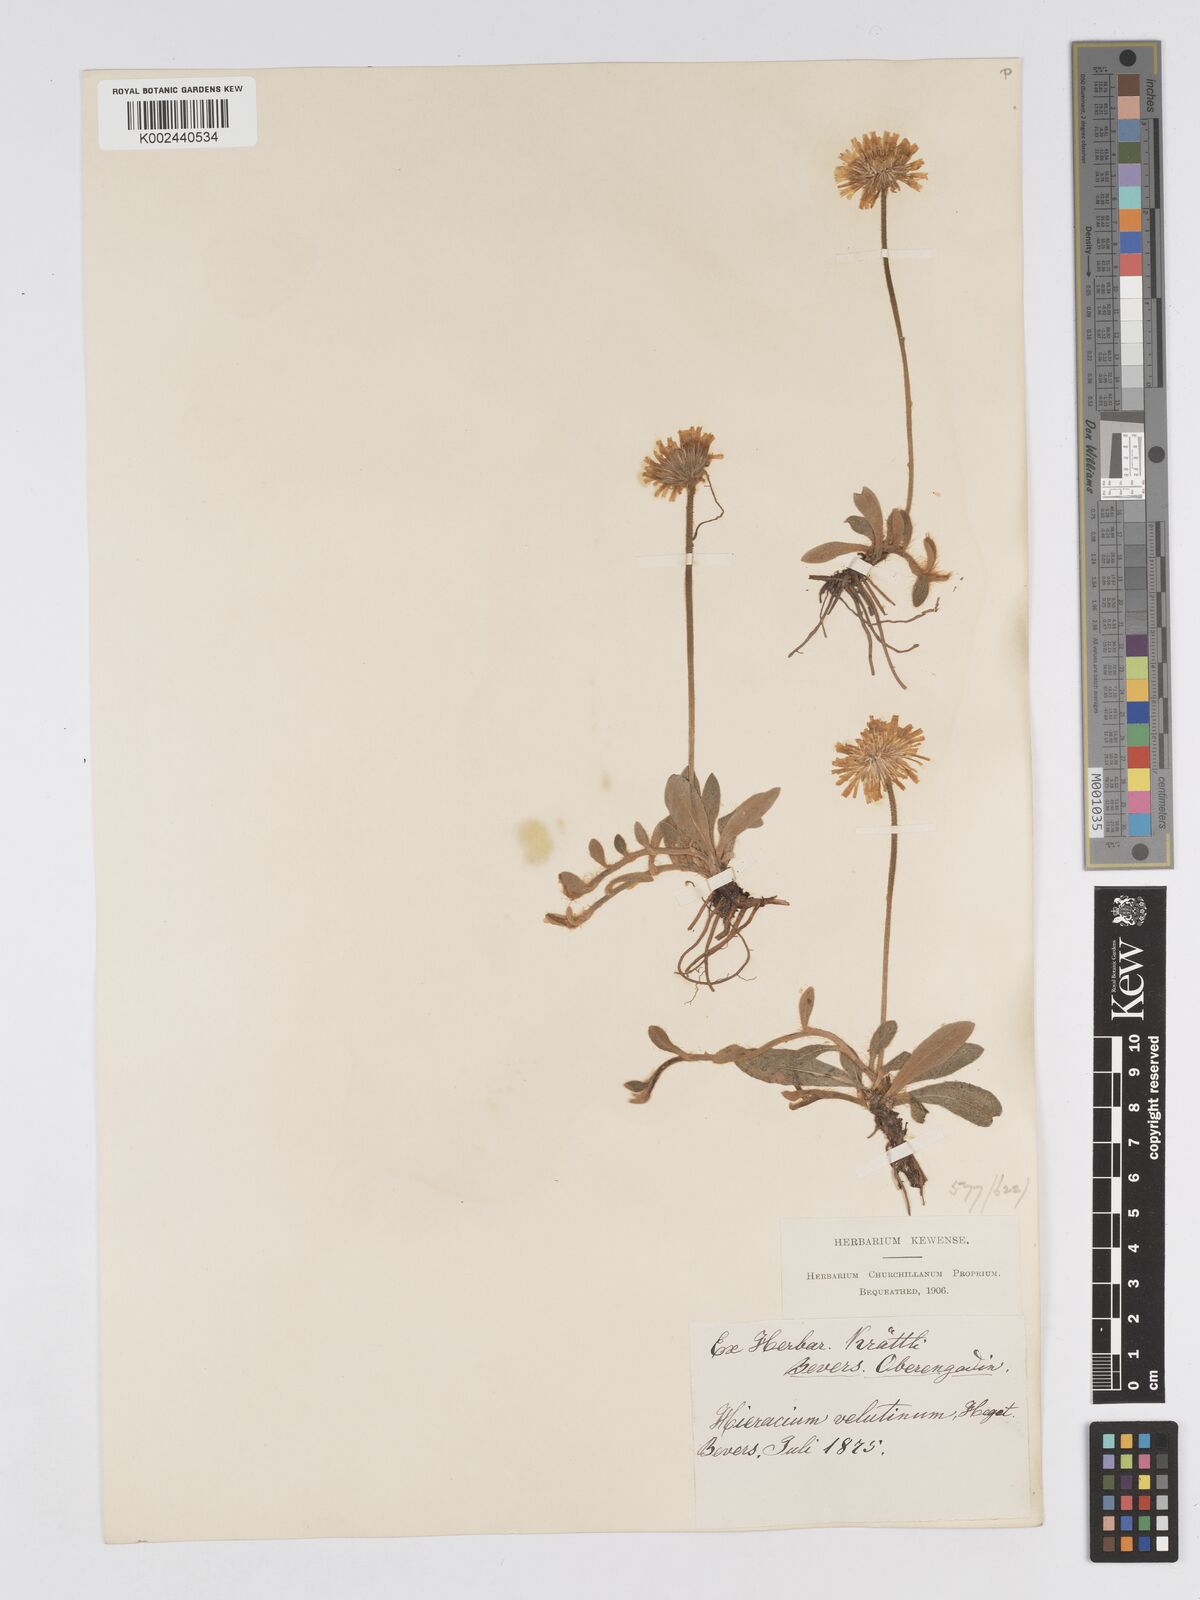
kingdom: Plantae
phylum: Tracheophyta
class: Magnoliopsida
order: Asterales
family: Asteraceae
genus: Pilosella
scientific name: Pilosella velutina
